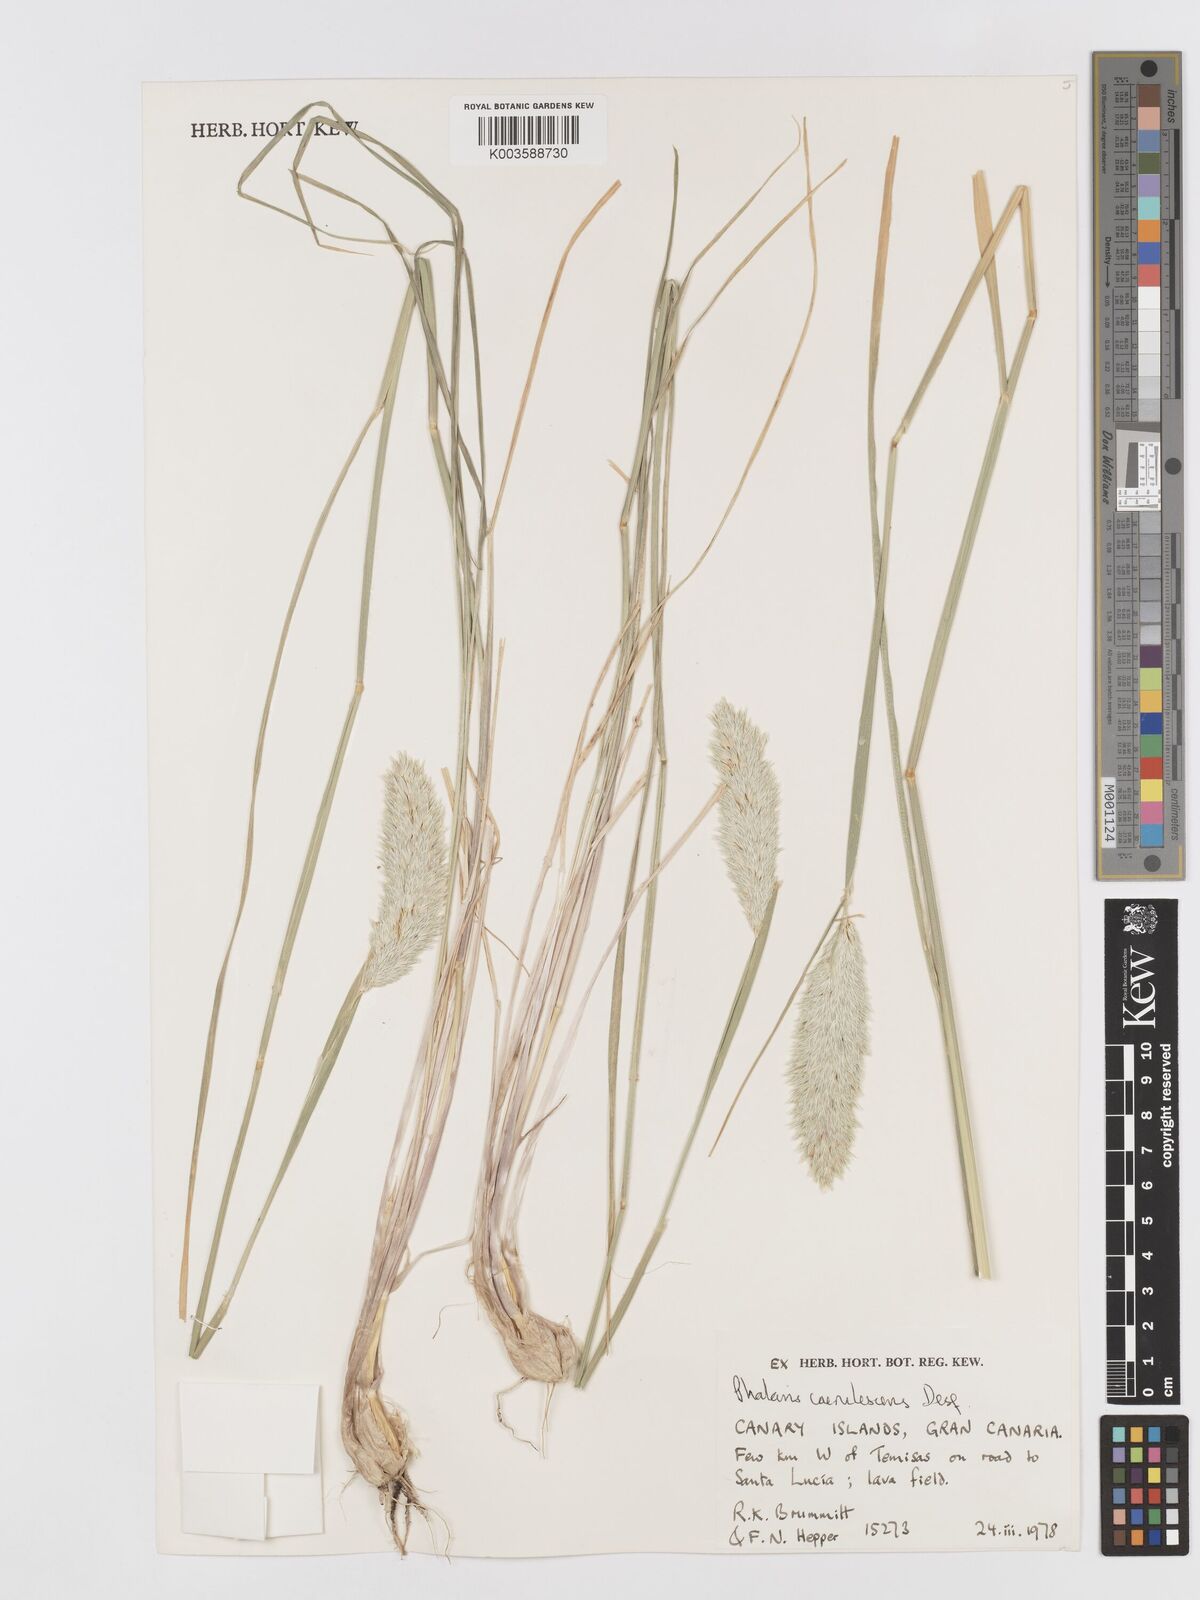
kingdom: Plantae
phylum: Tracheophyta
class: Liliopsida
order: Poales
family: Poaceae
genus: Phalaris
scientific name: Phalaris coerulescens
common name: Sunolgrass
